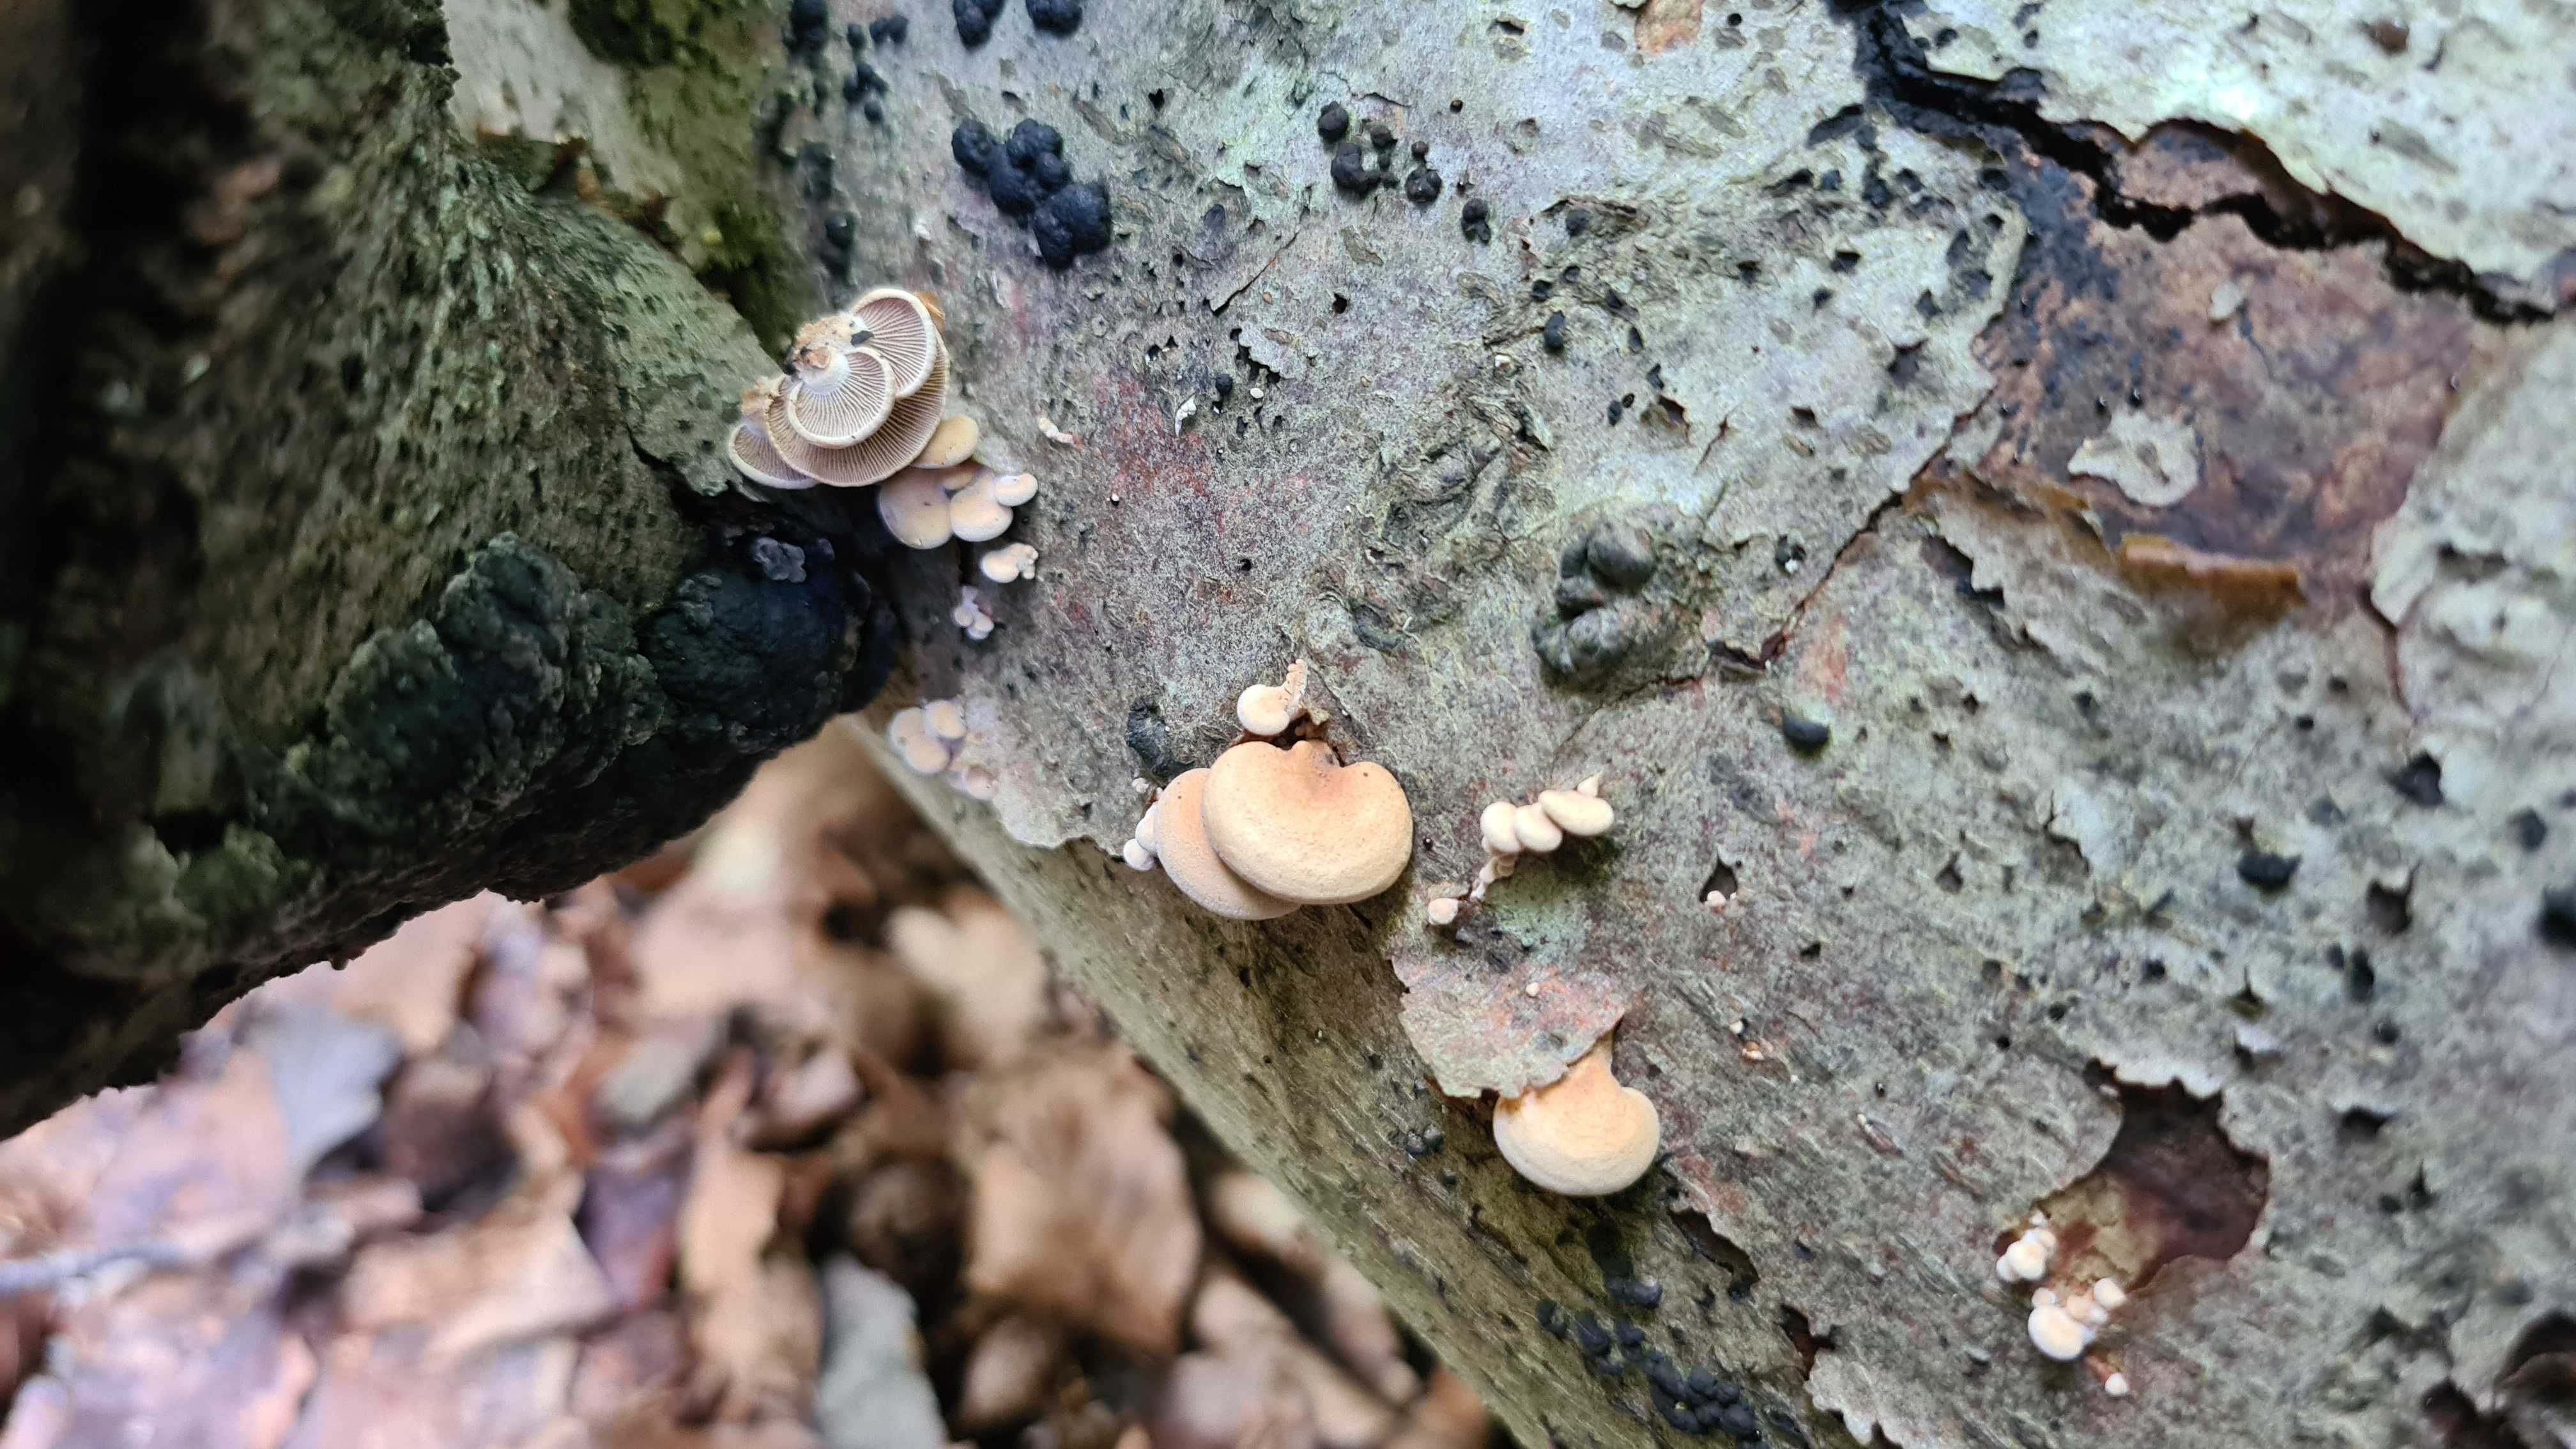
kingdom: Fungi
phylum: Basidiomycota
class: Agaricomycetes
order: Agaricales
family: Mycenaceae
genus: Panellus
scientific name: Panellus stipticus
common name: kliddet epaulethat
